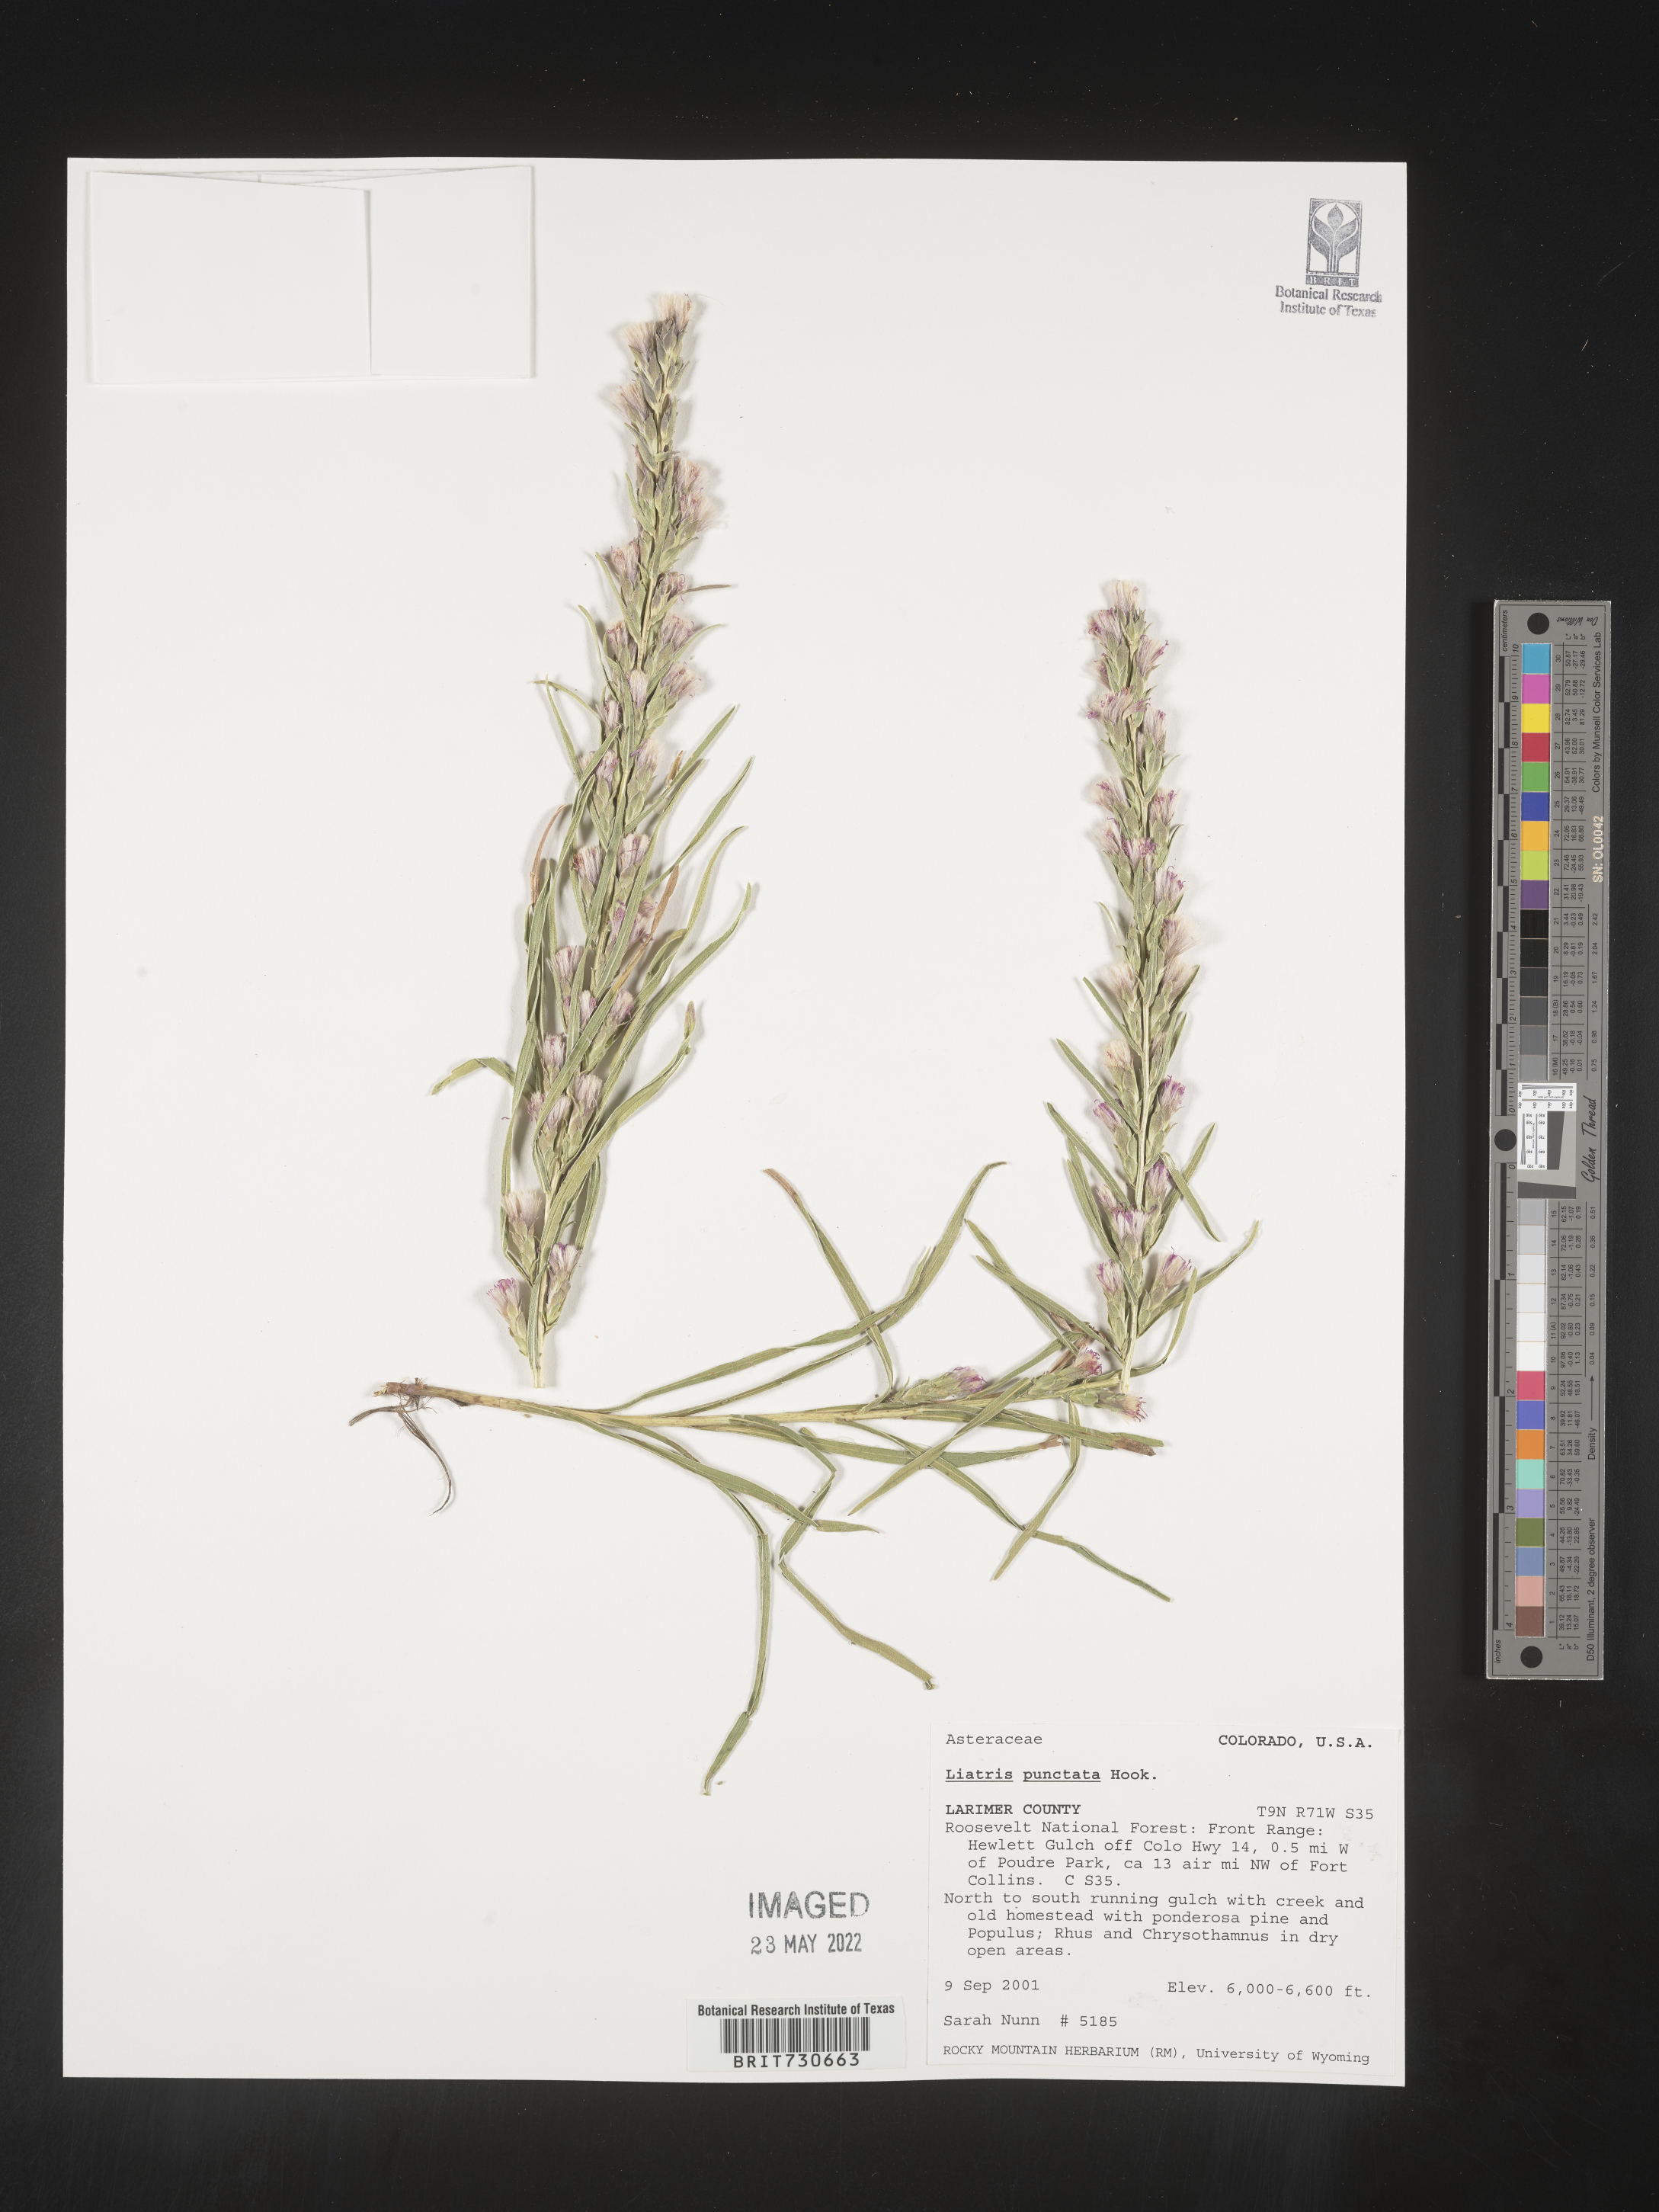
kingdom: Plantae
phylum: Tracheophyta
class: Magnoliopsida
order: Asterales
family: Asteraceae
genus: Liatris
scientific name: Liatris punctata
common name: Dotted gayfeather
